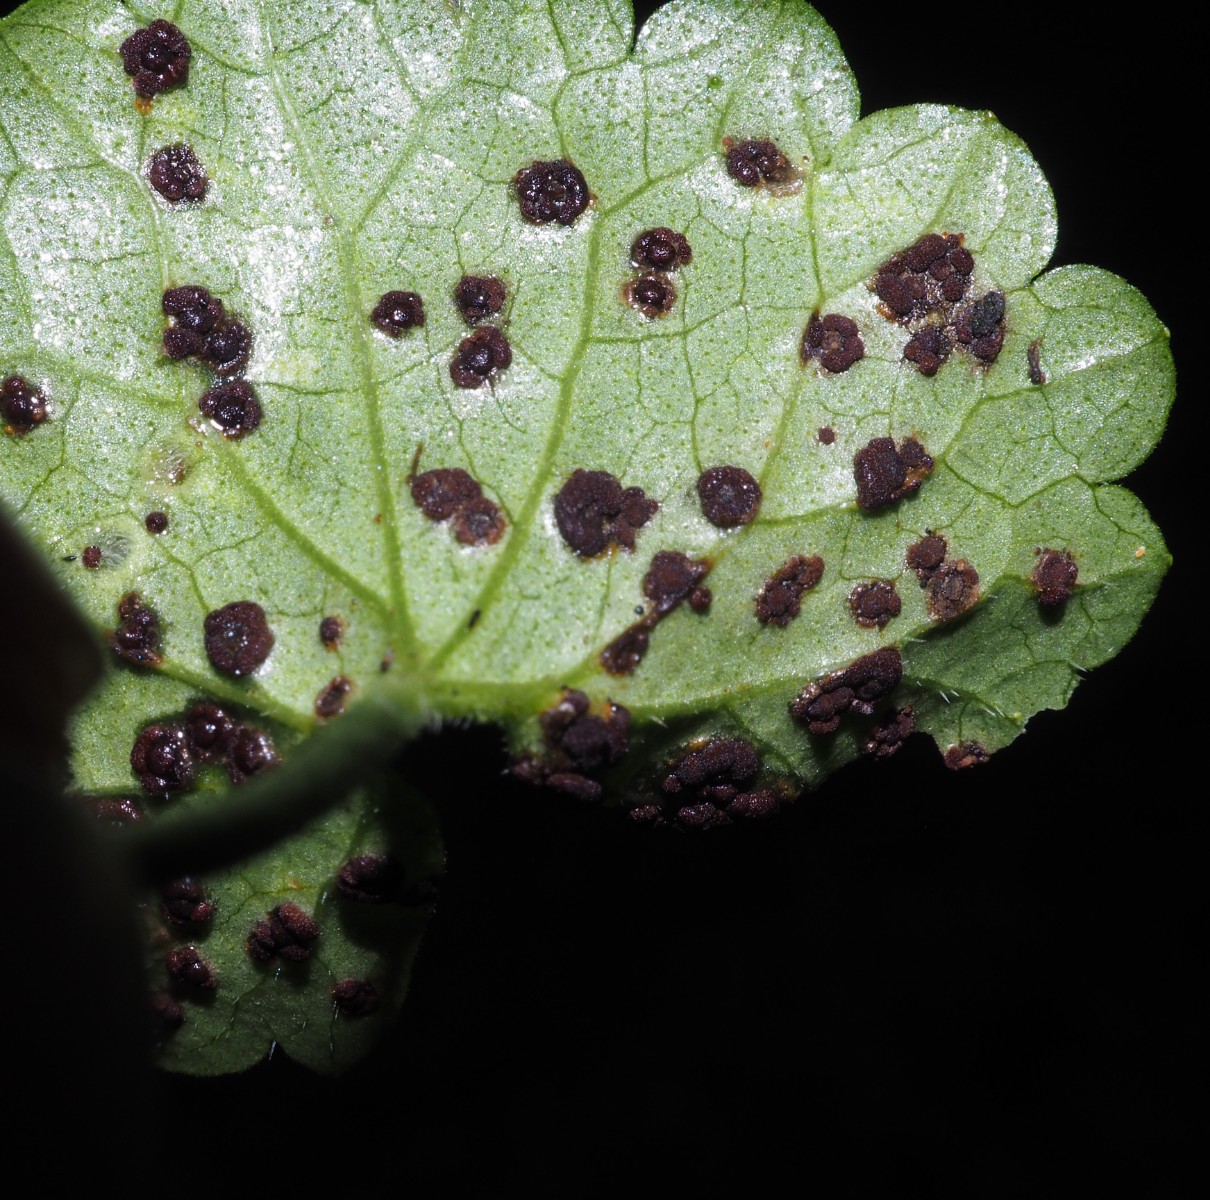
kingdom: Fungi
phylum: Basidiomycota
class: Pucciniomycetes
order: Pucciniales
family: Pucciniaceae
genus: Puccinia
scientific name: Puccinia glechomatis
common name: Ground ivy rust
